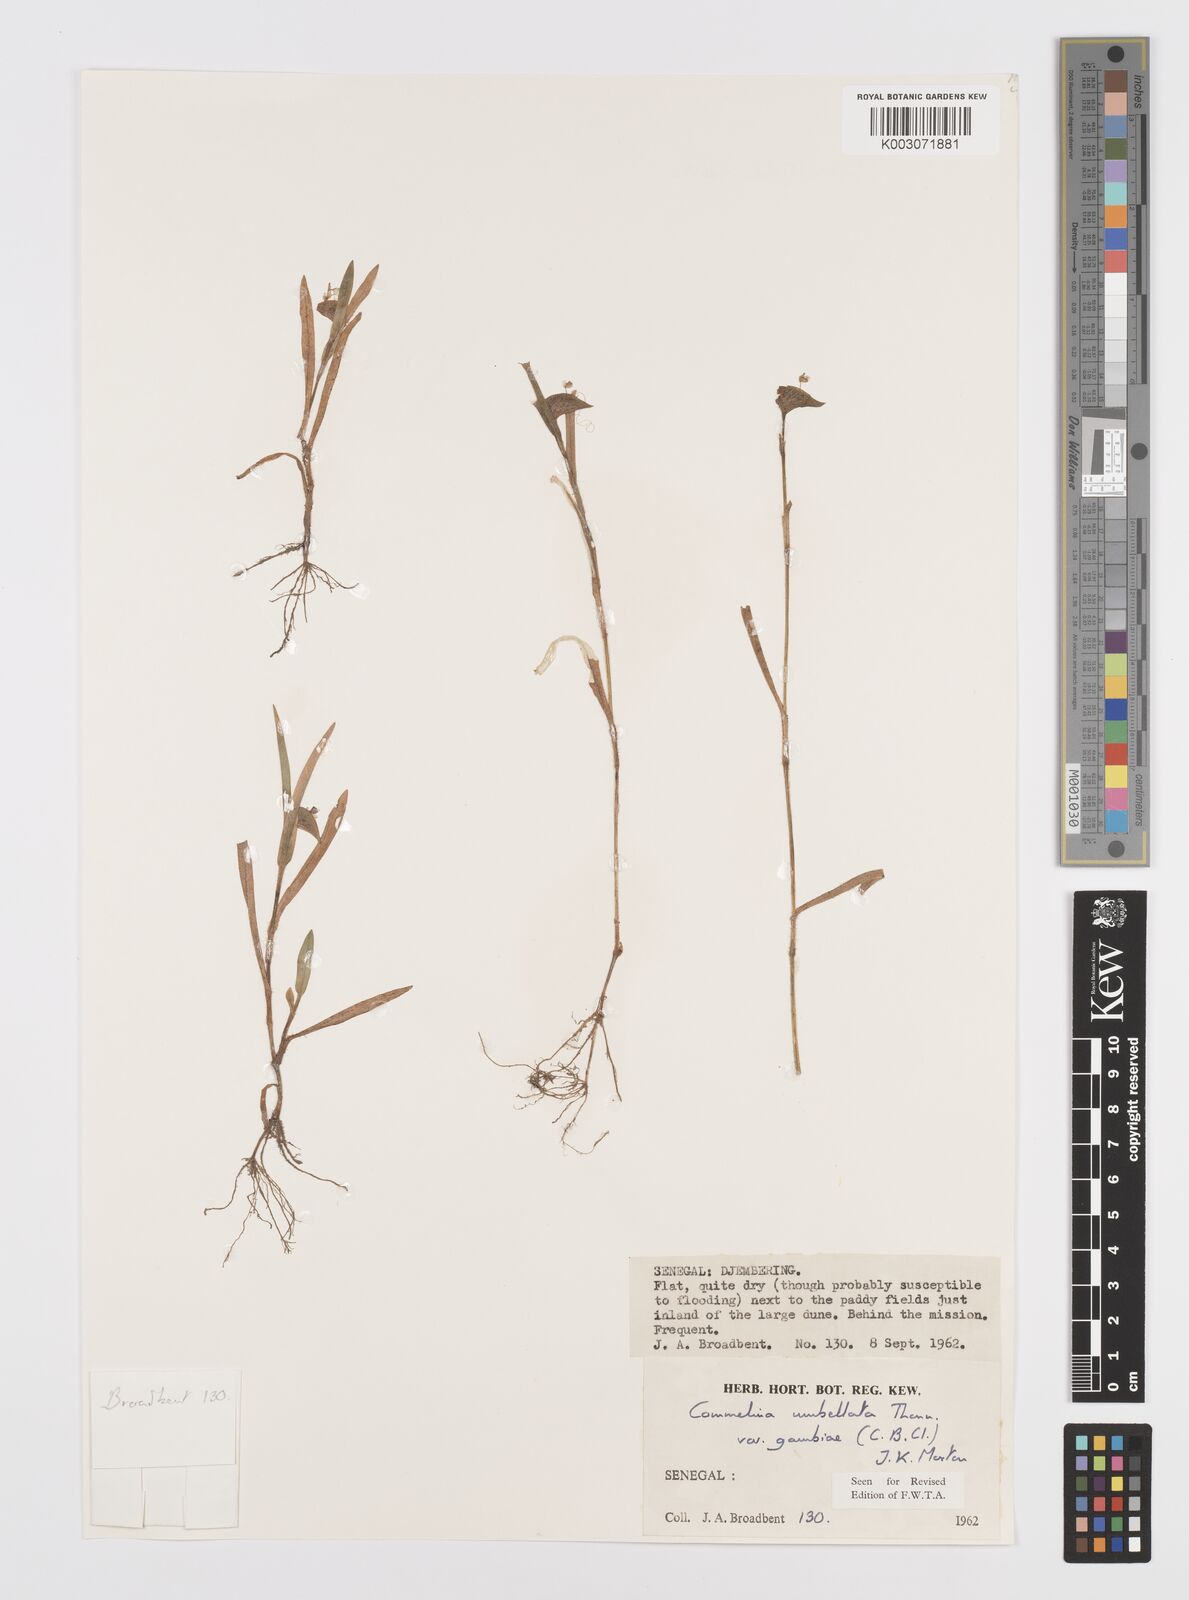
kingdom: Plantae
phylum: Tracheophyta
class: Liliopsida
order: Commelinales
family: Commelinaceae
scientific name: Commelinaceae
